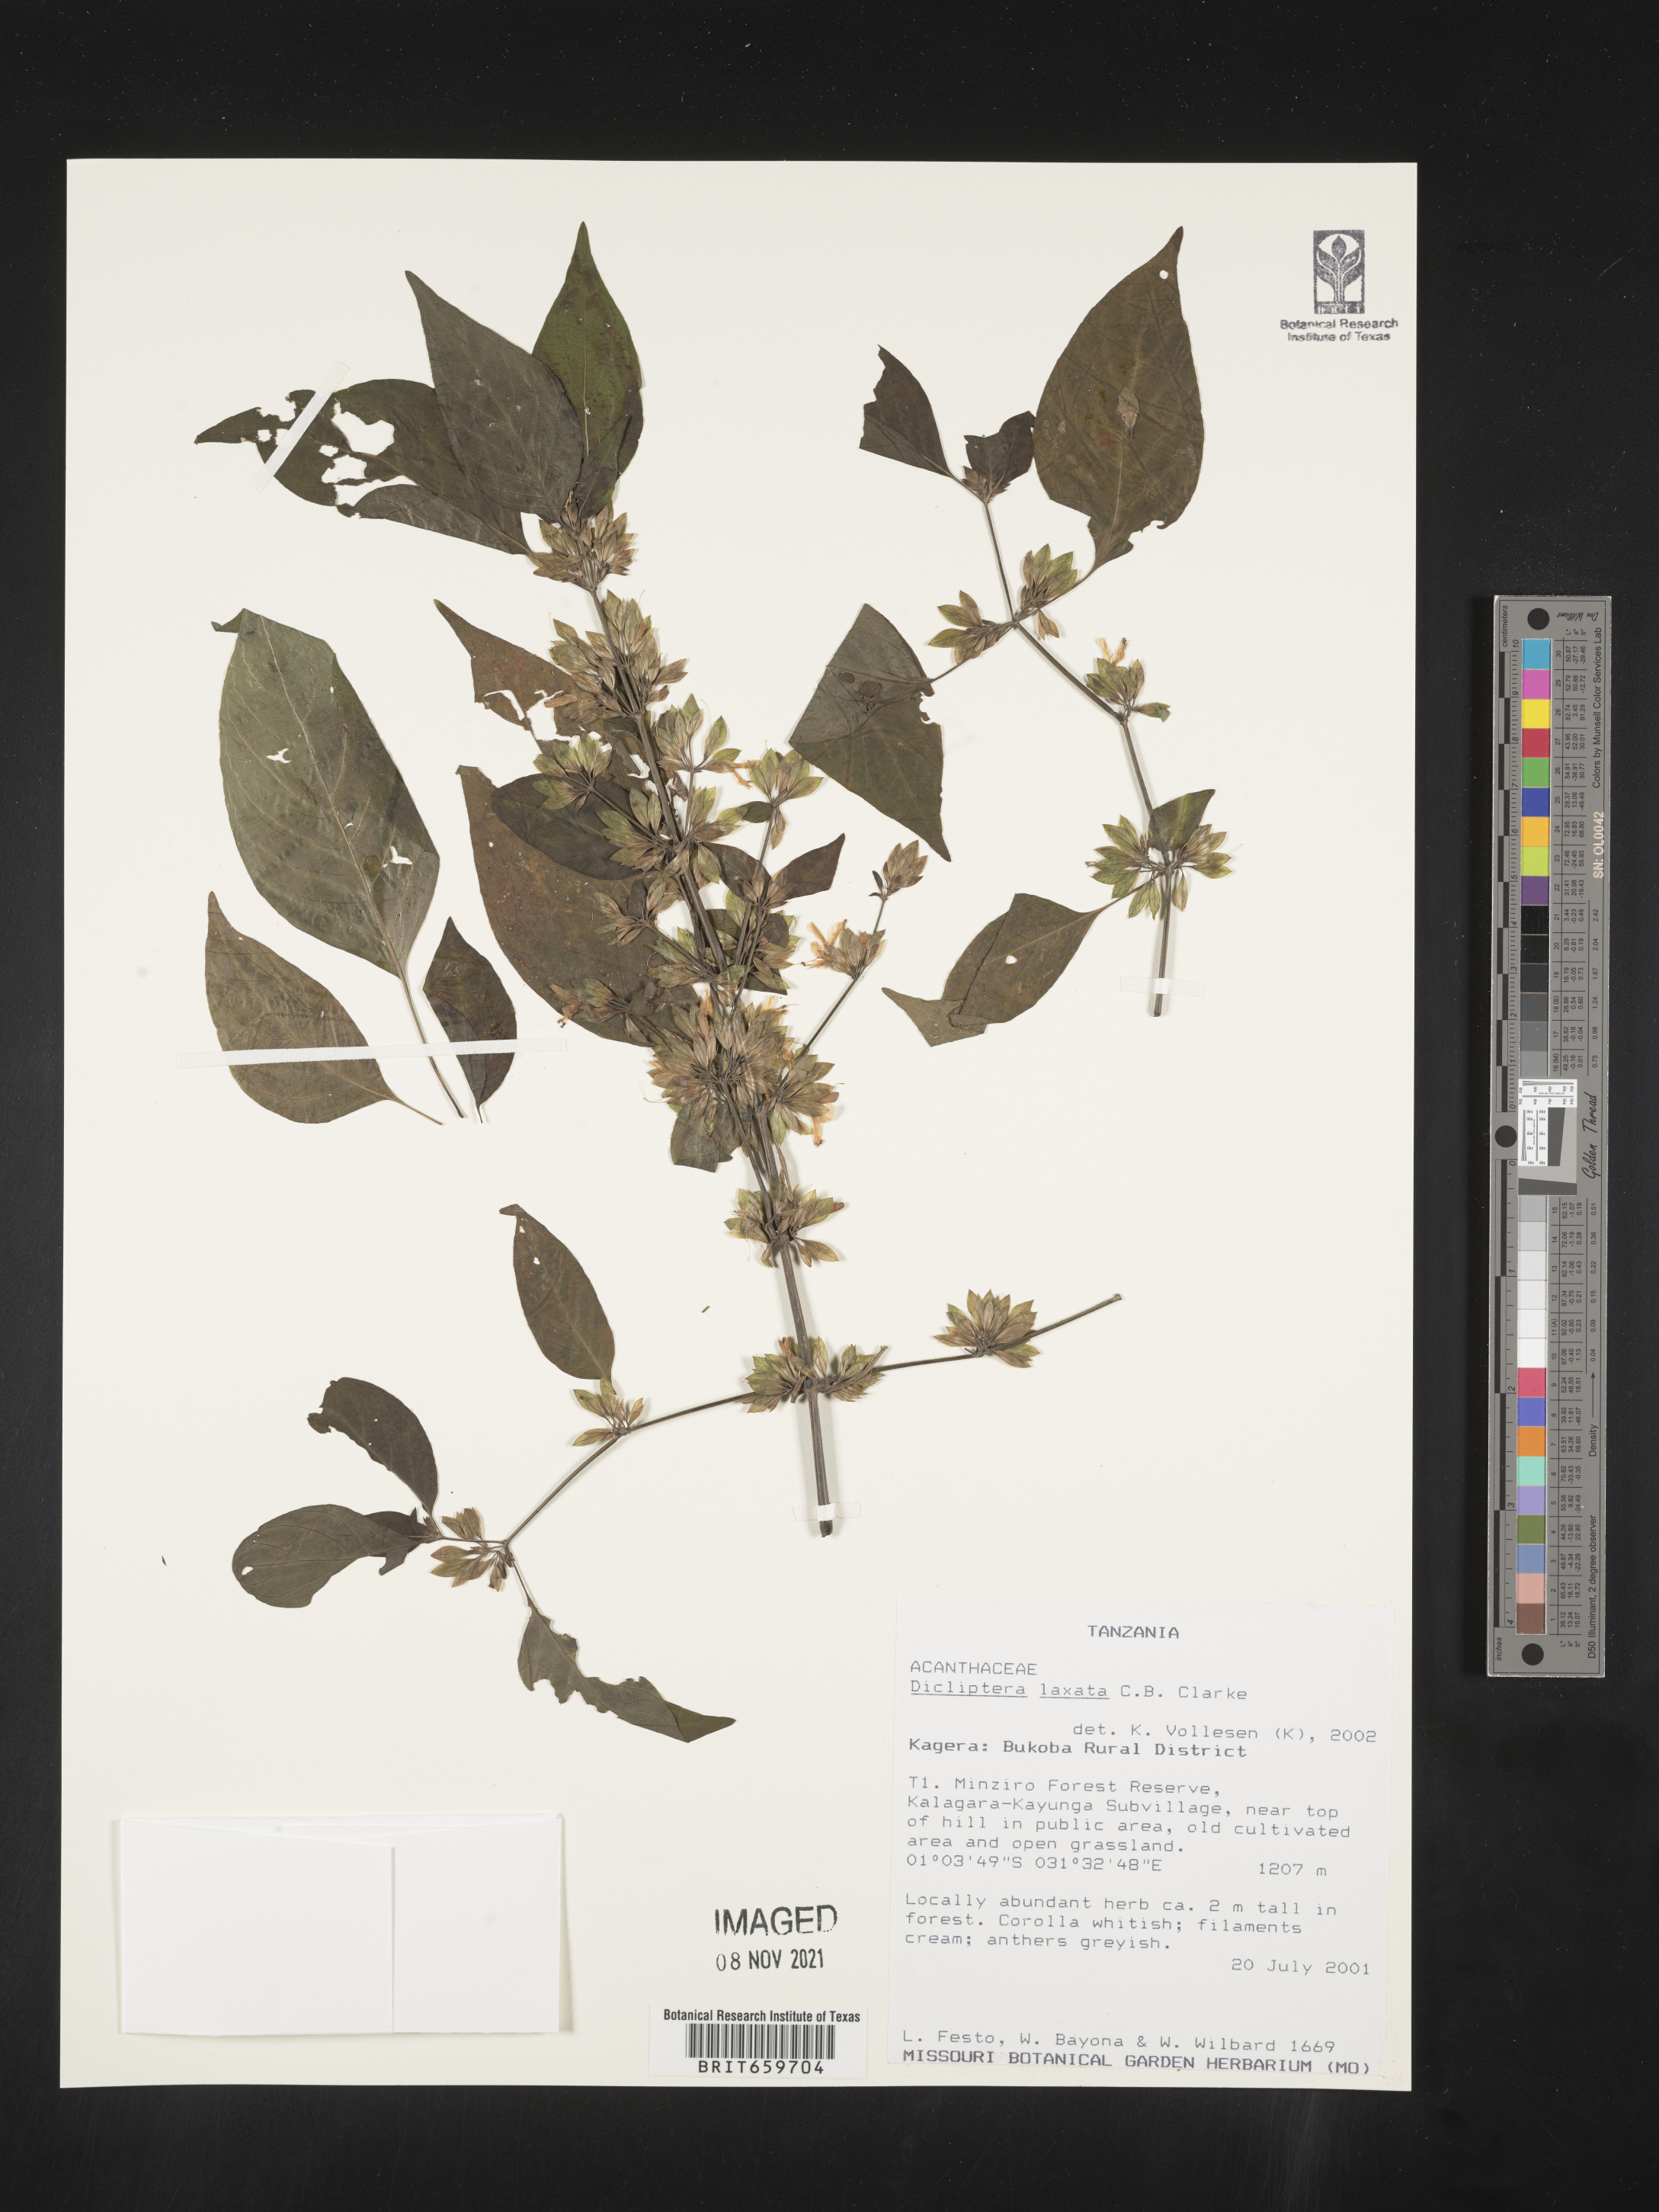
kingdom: Plantae
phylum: Tracheophyta
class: Magnoliopsida
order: Lamiales
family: Acanthaceae
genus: Dicliptera
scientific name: Dicliptera laxata
